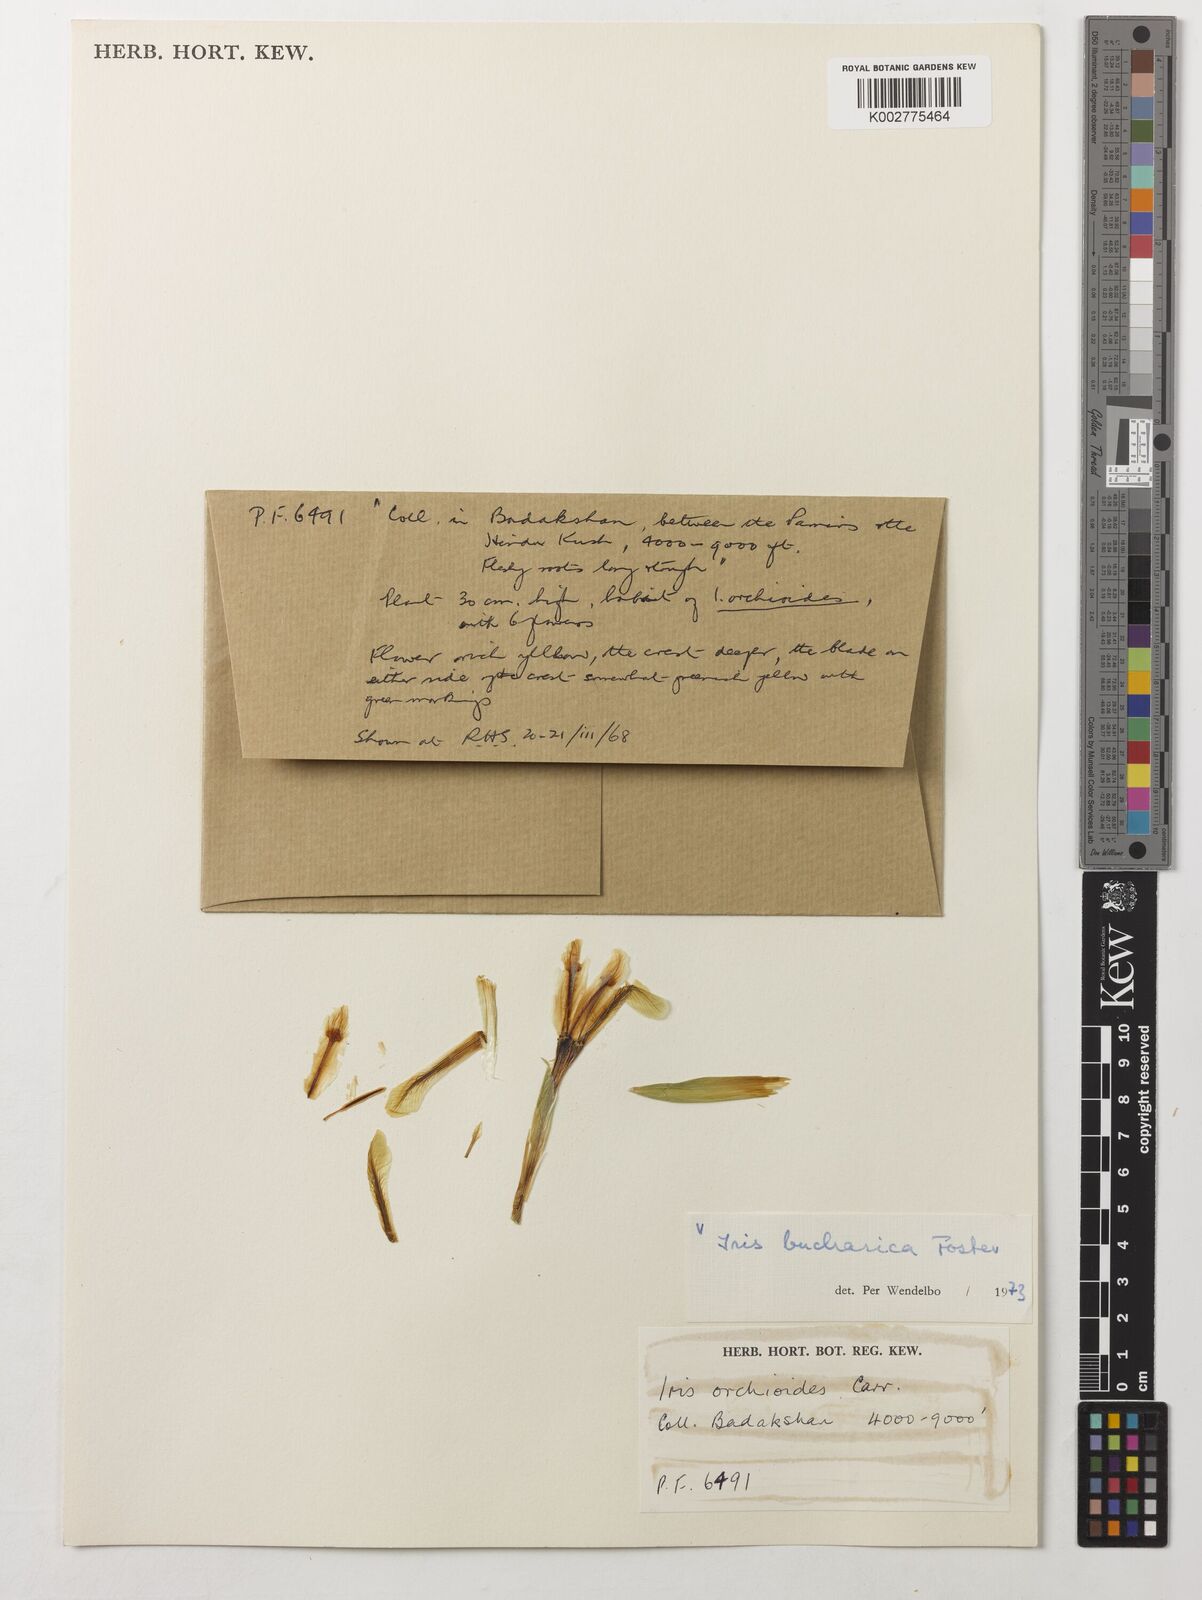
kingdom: Plantae
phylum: Tracheophyta
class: Liliopsida
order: Asparagales
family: Iridaceae
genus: Iris
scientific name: Iris bucharica
